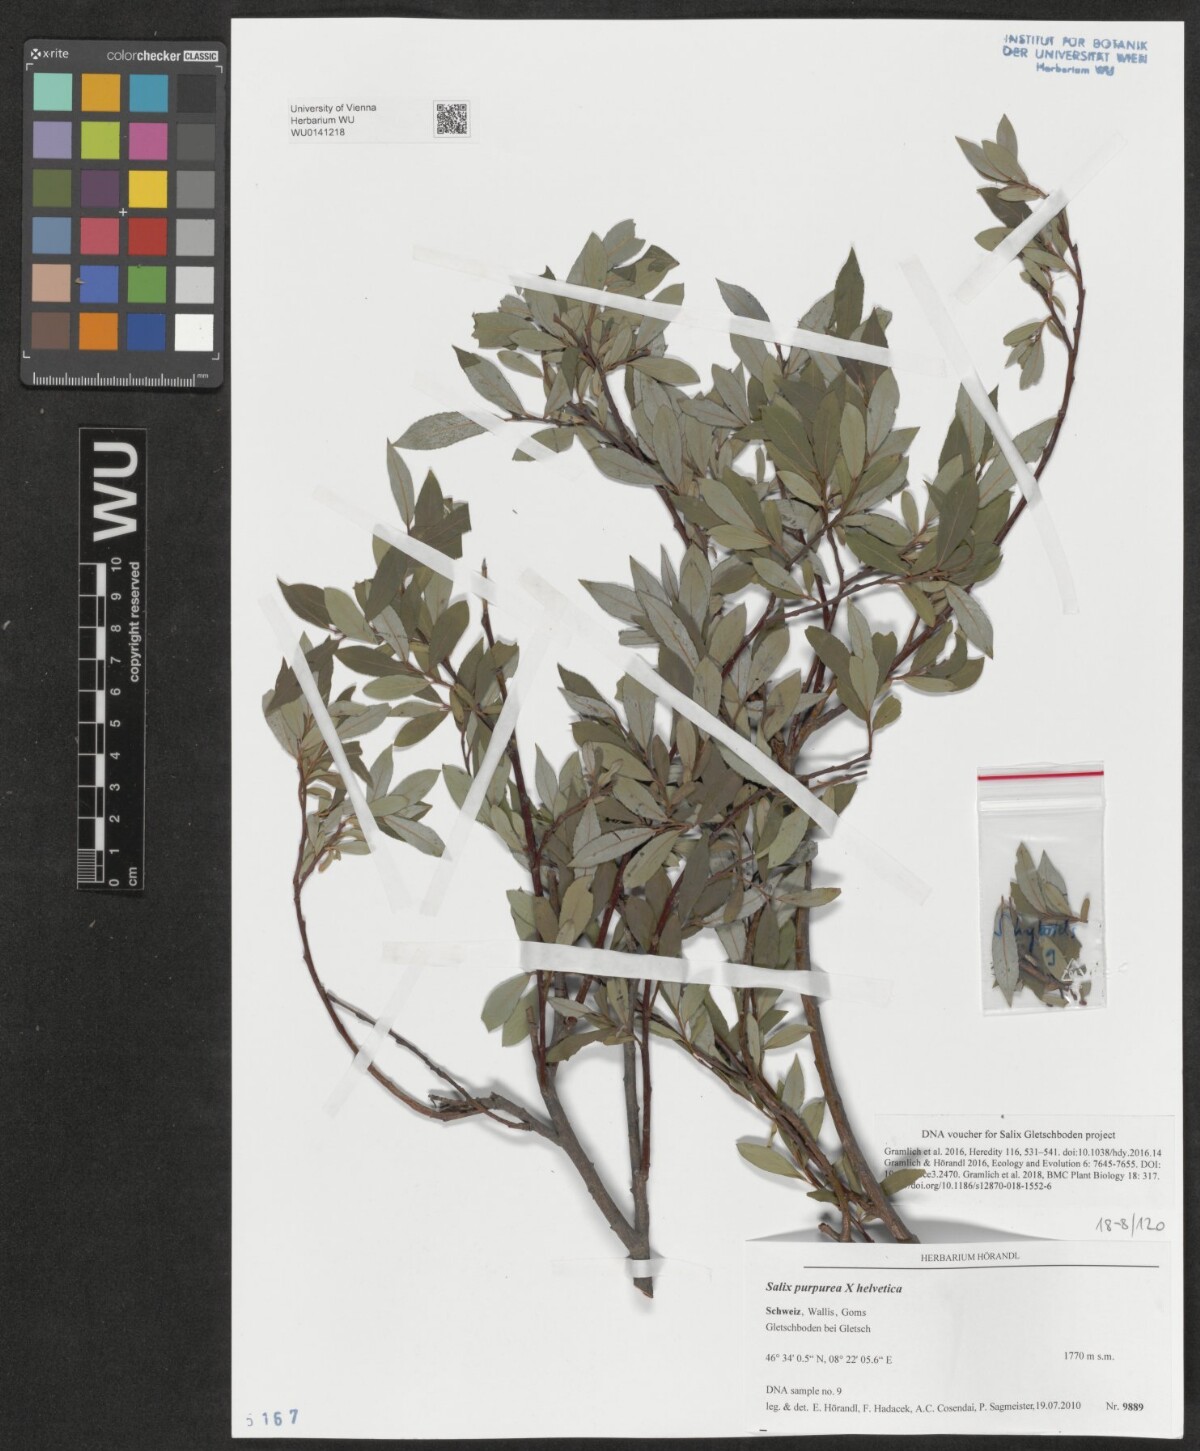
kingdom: Plantae
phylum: Tracheophyta
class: Magnoliopsida
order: Malpighiales
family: Salicaceae
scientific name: Salicaceae
